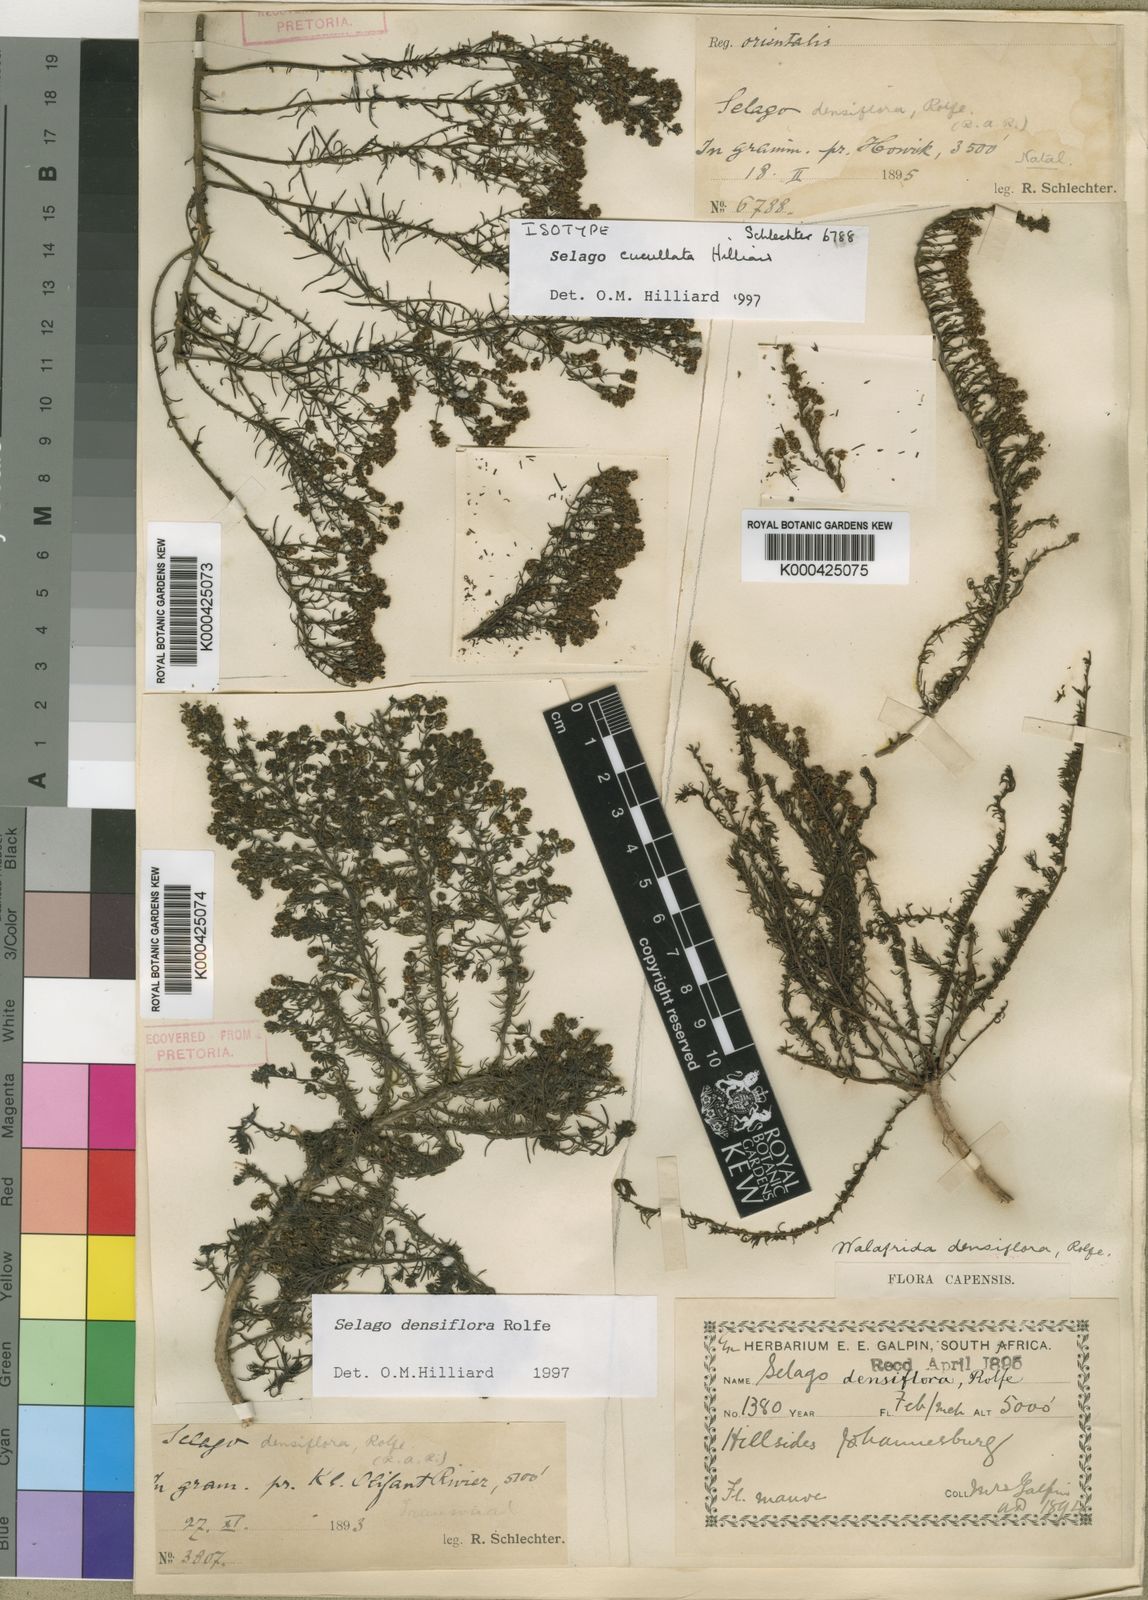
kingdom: Plantae
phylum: Tracheophyta
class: Magnoliopsida
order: Lamiales
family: Scrophulariaceae
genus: Selago
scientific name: Selago cucullata
